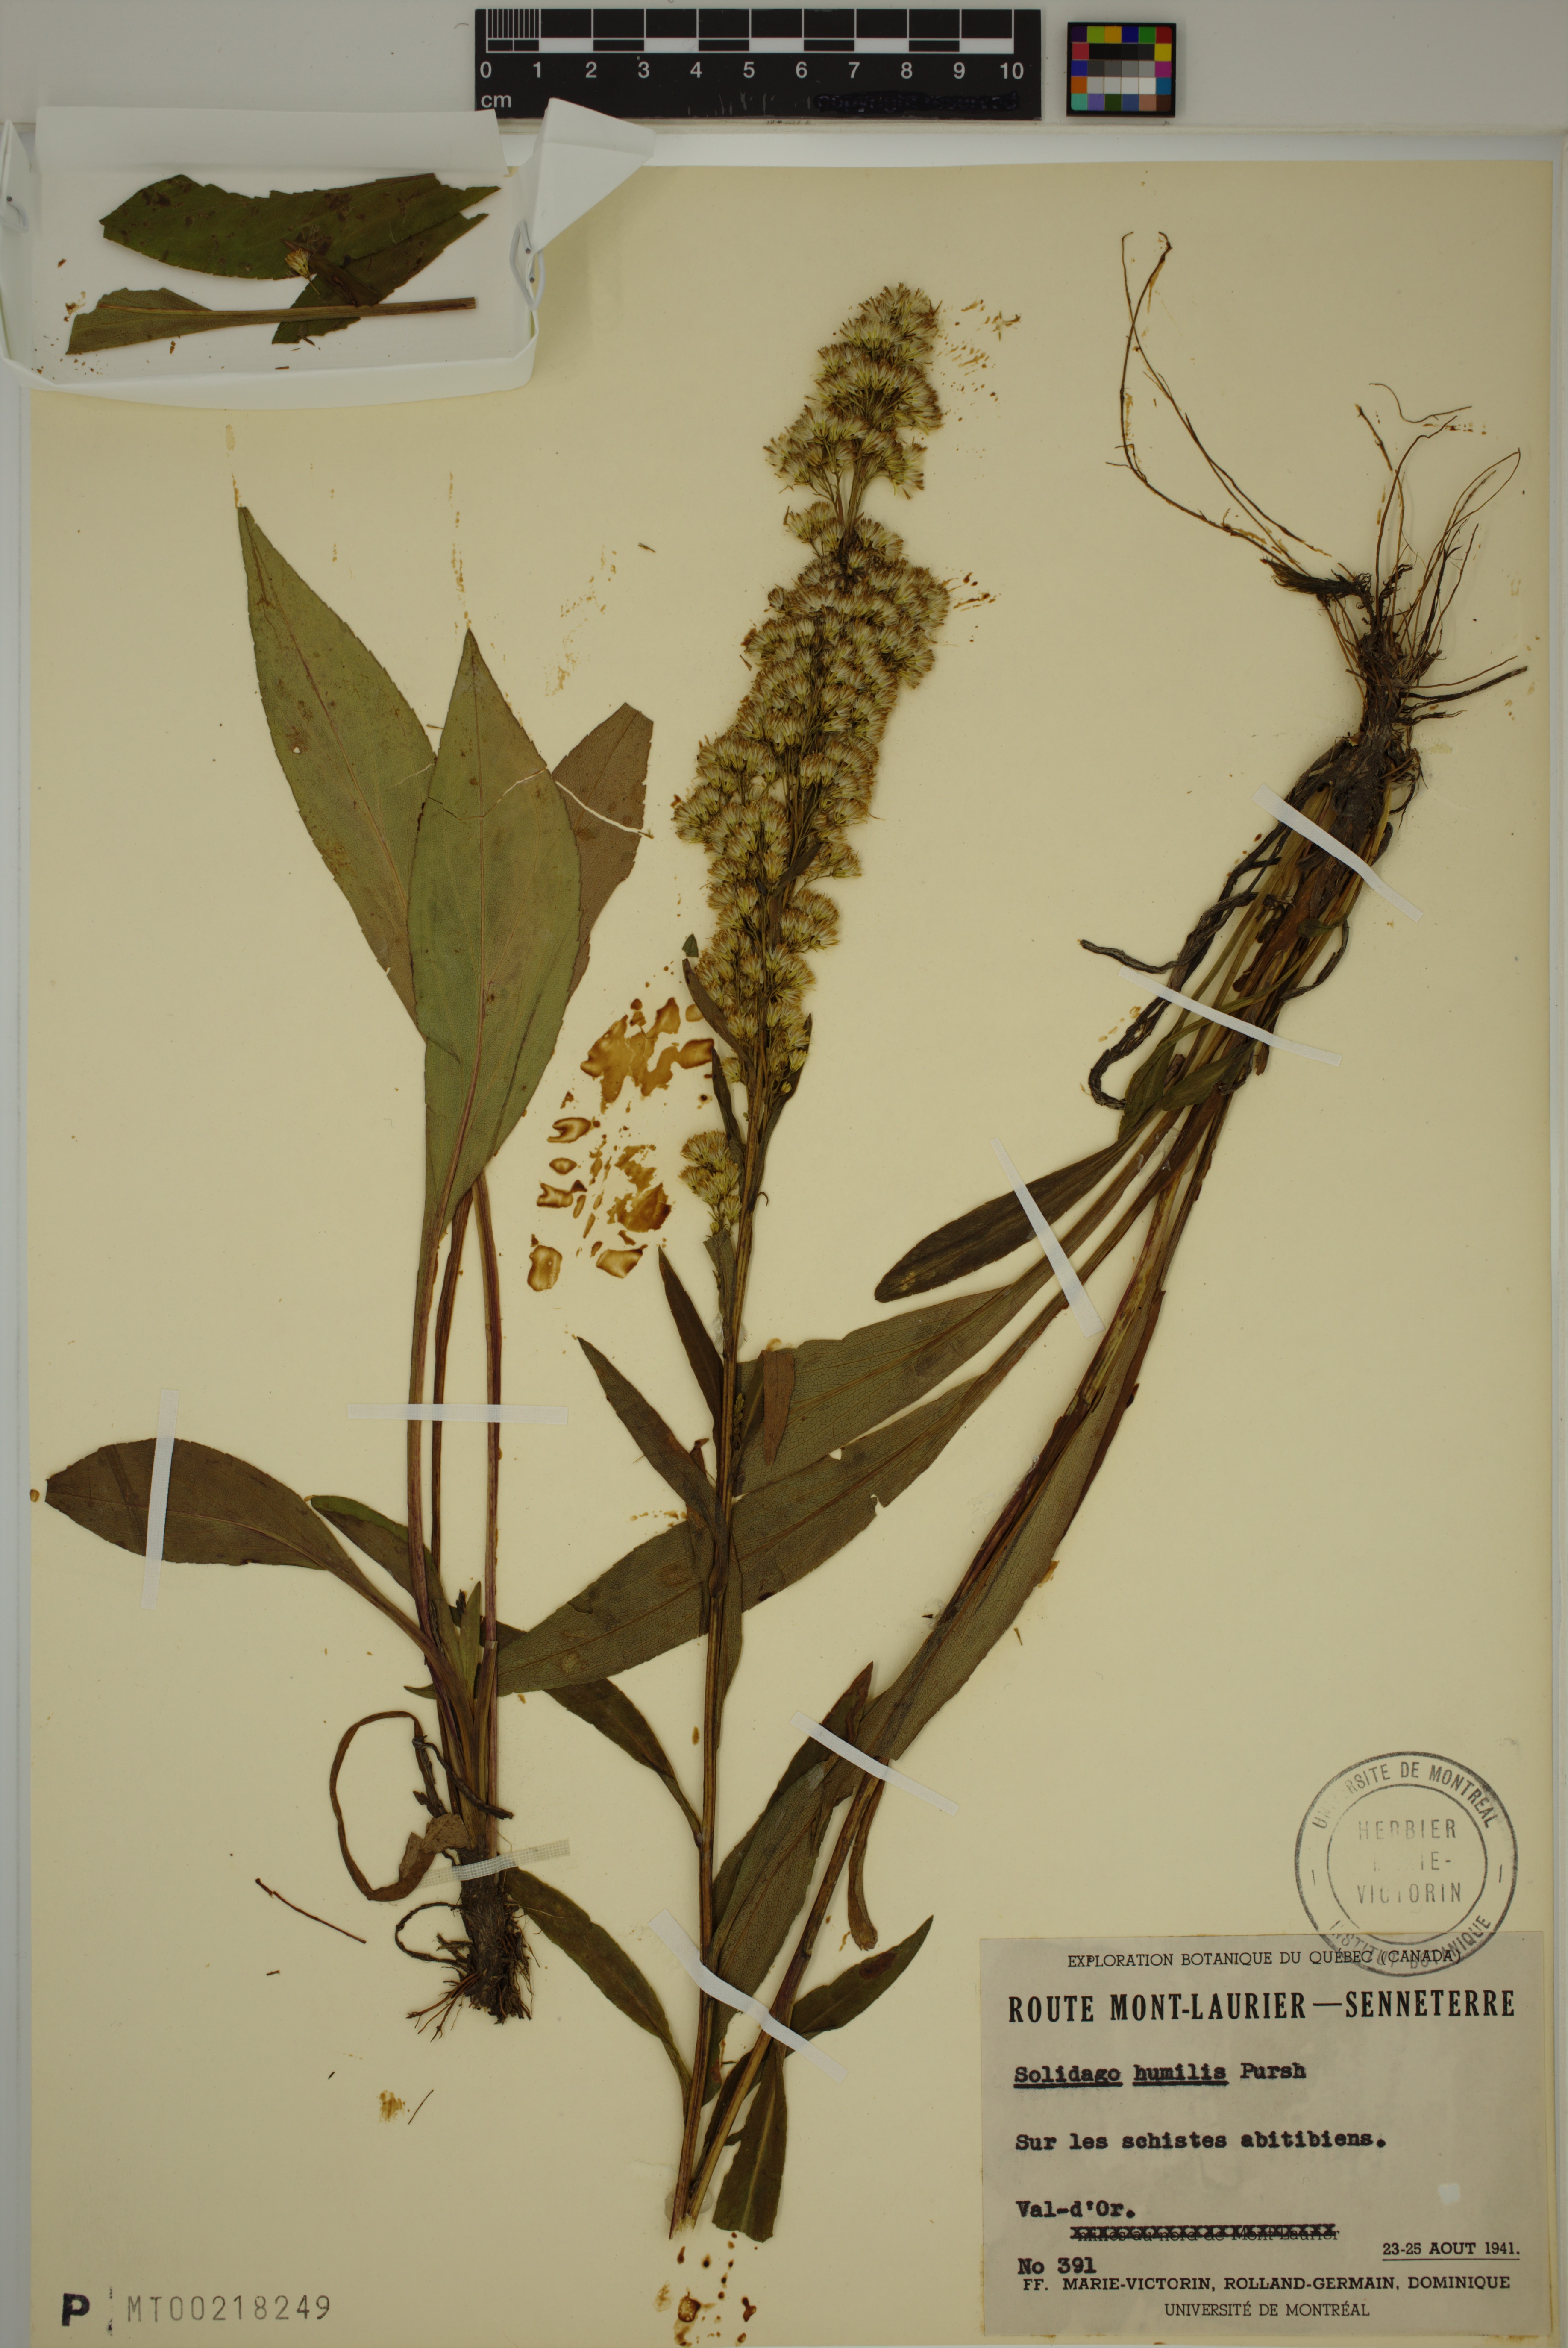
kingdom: Plantae
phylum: Tracheophyta
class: Magnoliopsida
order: Asterales
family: Asteraceae
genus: Solidago
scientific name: Solidago uliginosa
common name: Bog goldenrod
